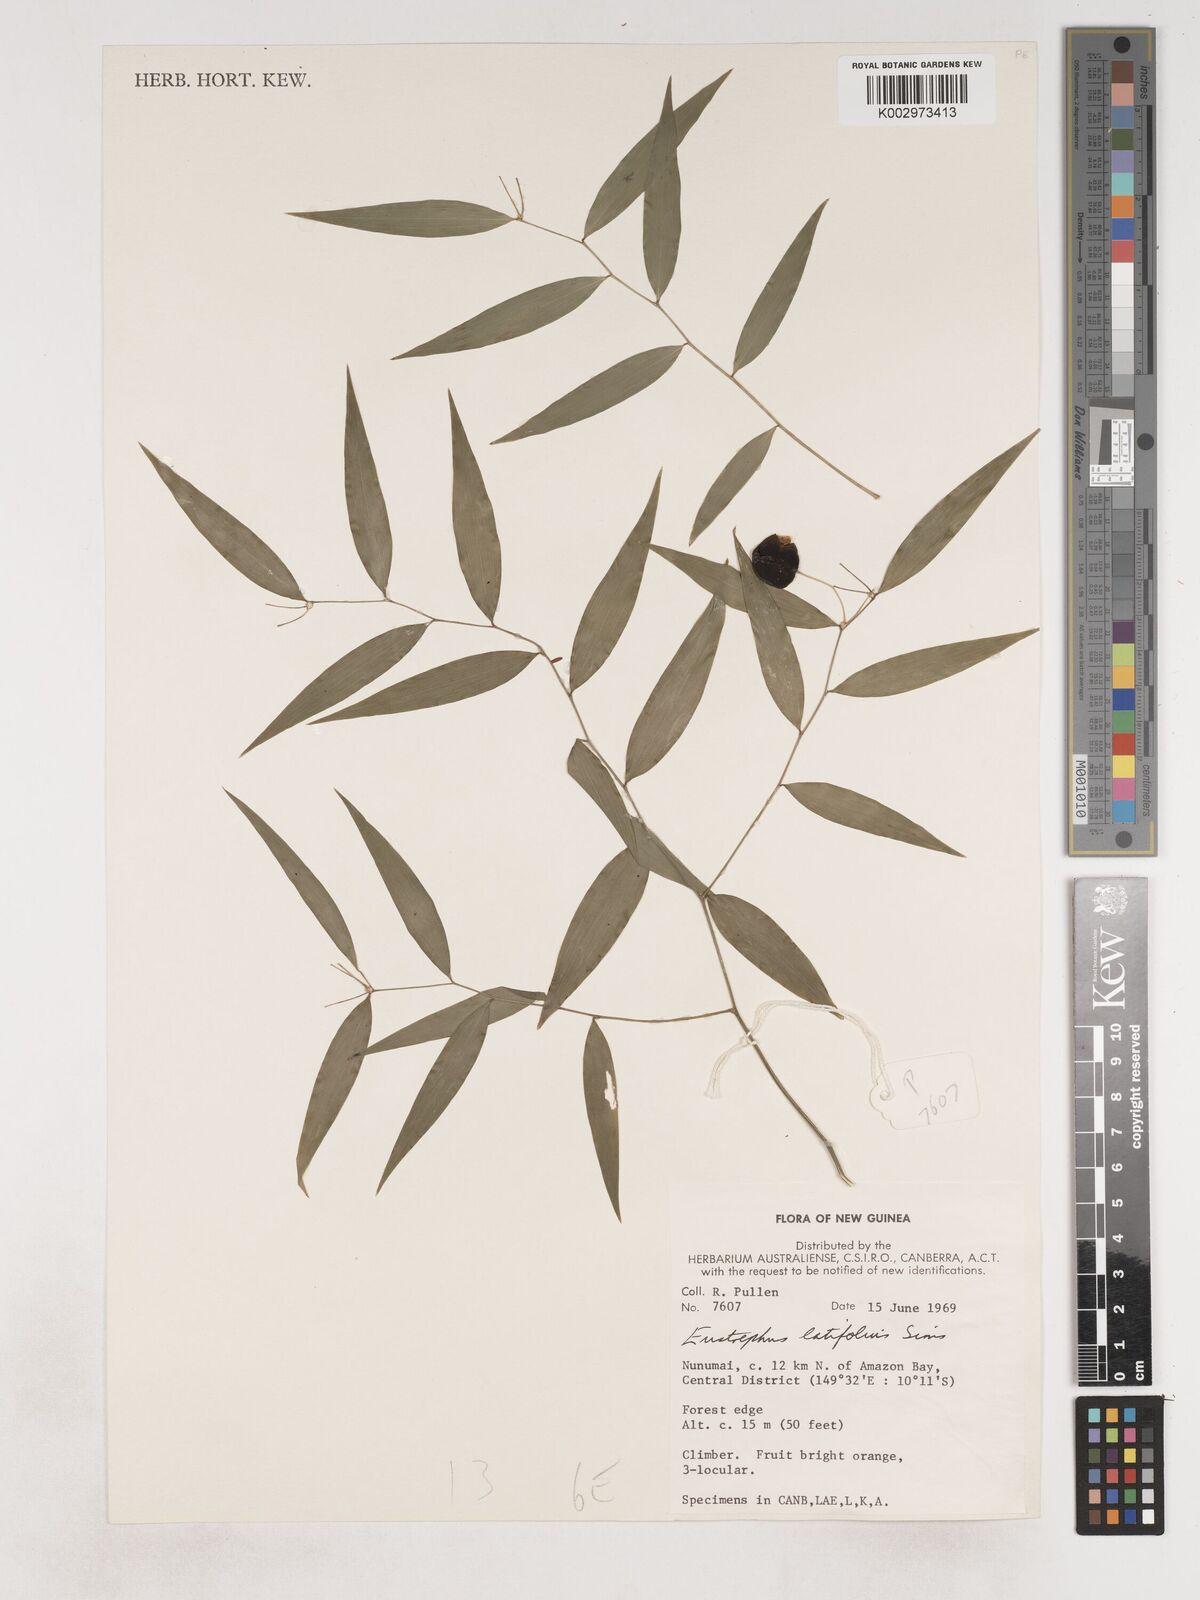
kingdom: Plantae
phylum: Tracheophyta
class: Liliopsida
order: Asparagales
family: Asparagaceae
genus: Eustrephus
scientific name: Eustrephus latifolius
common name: Orangevine
